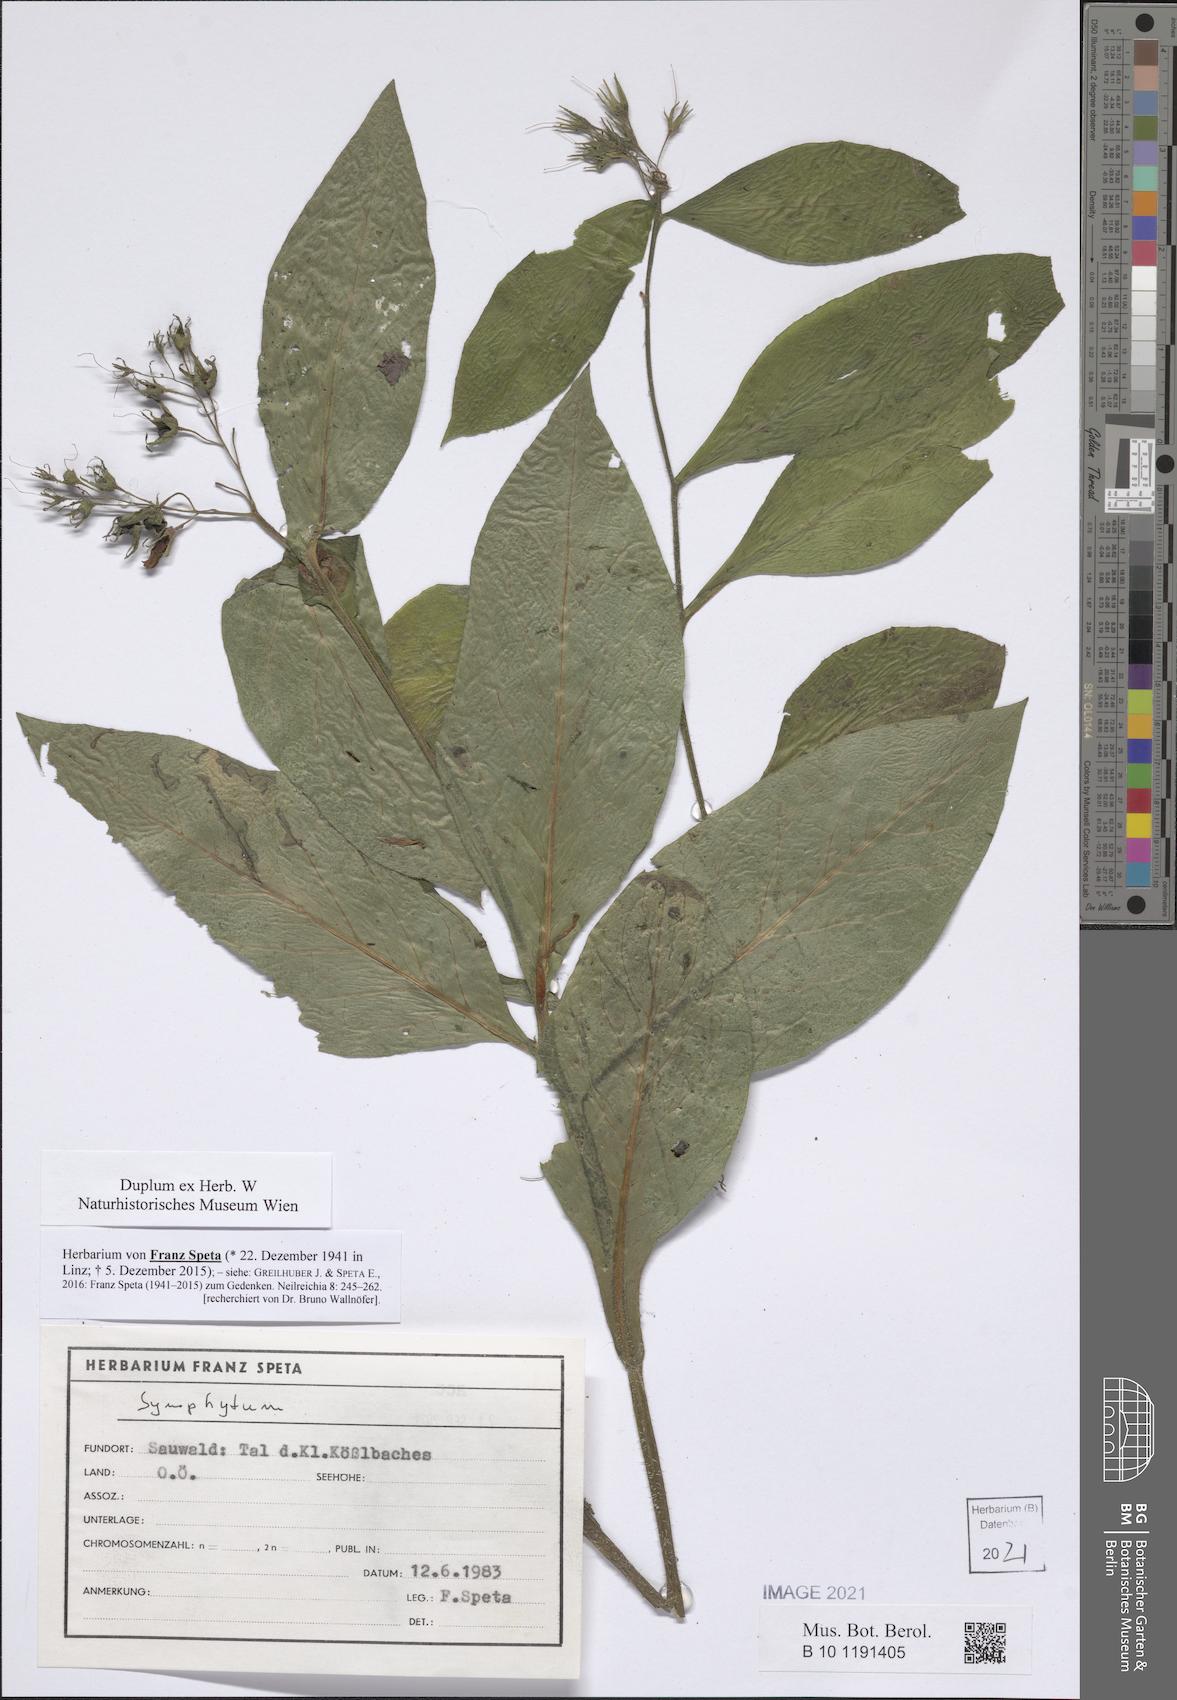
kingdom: Plantae
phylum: Tracheophyta
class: Magnoliopsida
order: Boraginales
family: Boraginaceae
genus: Symphytum
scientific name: Symphytum
